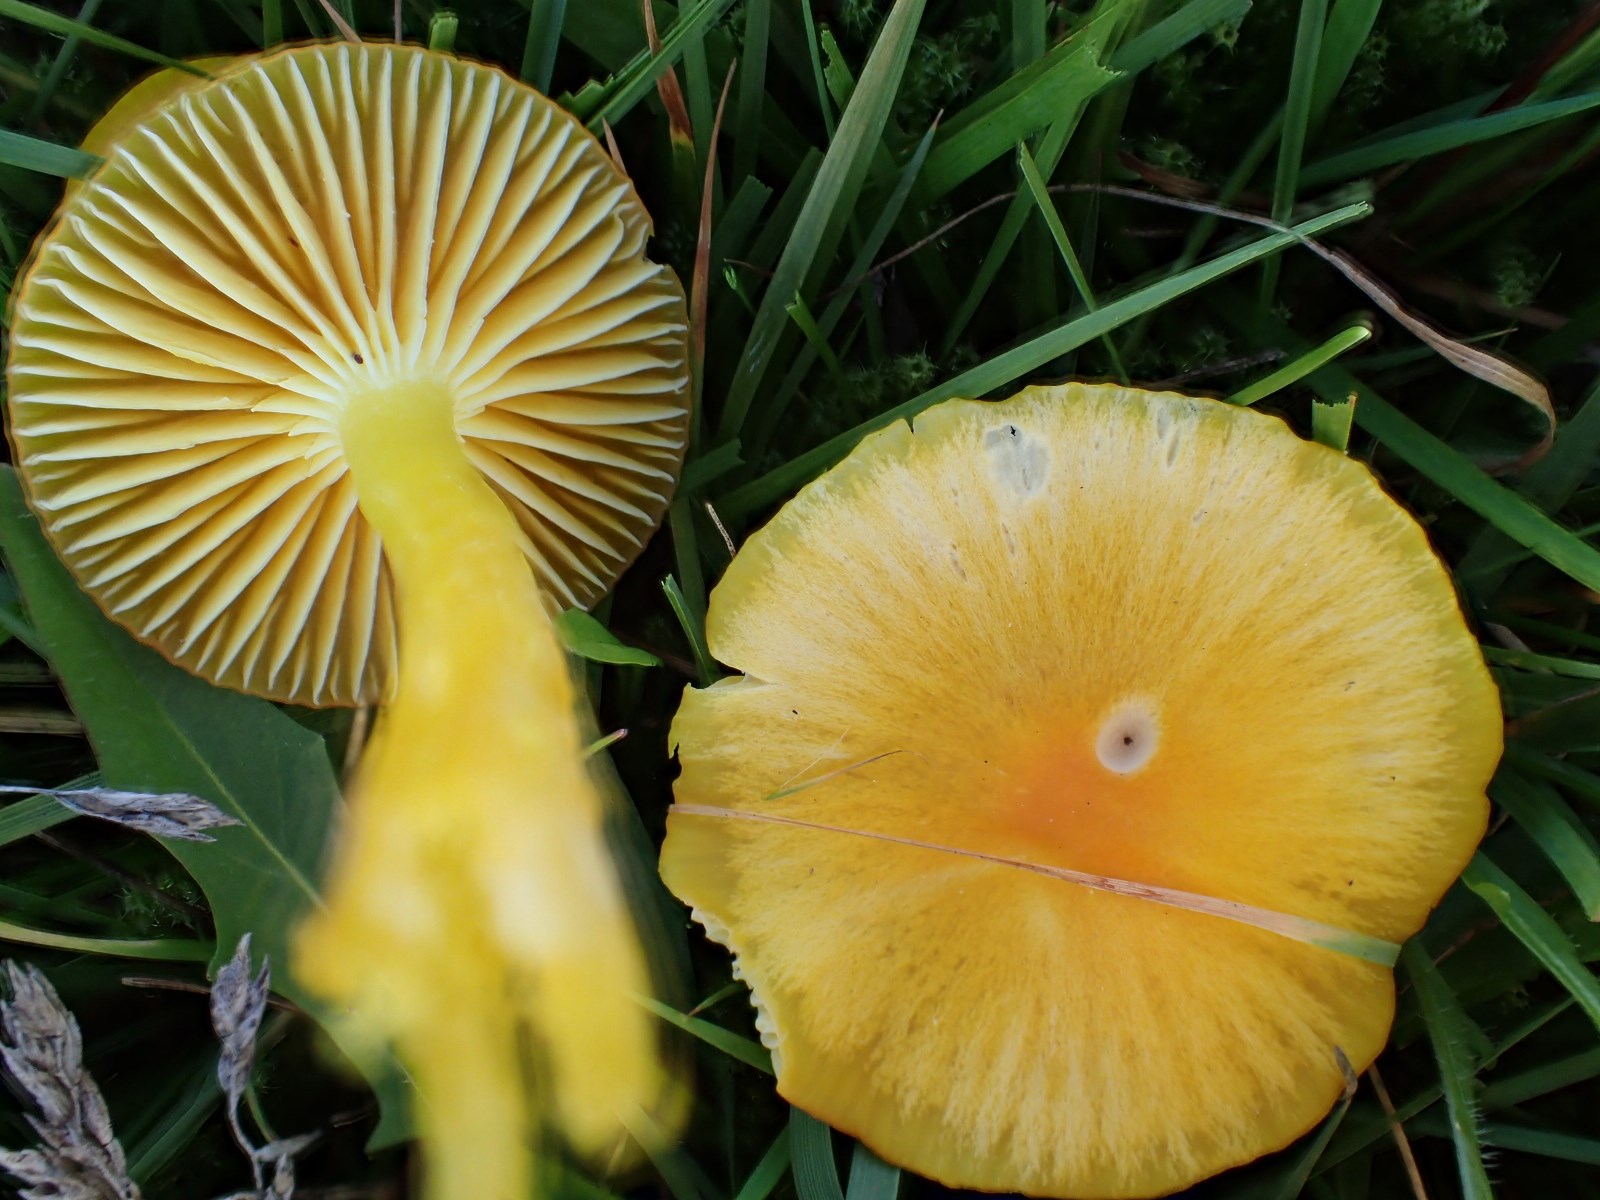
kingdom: Fungi
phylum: Basidiomycota
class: Agaricomycetes
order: Agaricales
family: Hygrophoraceae
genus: Hygrocybe
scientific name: Hygrocybe ceracea
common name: voksgul vokshat
